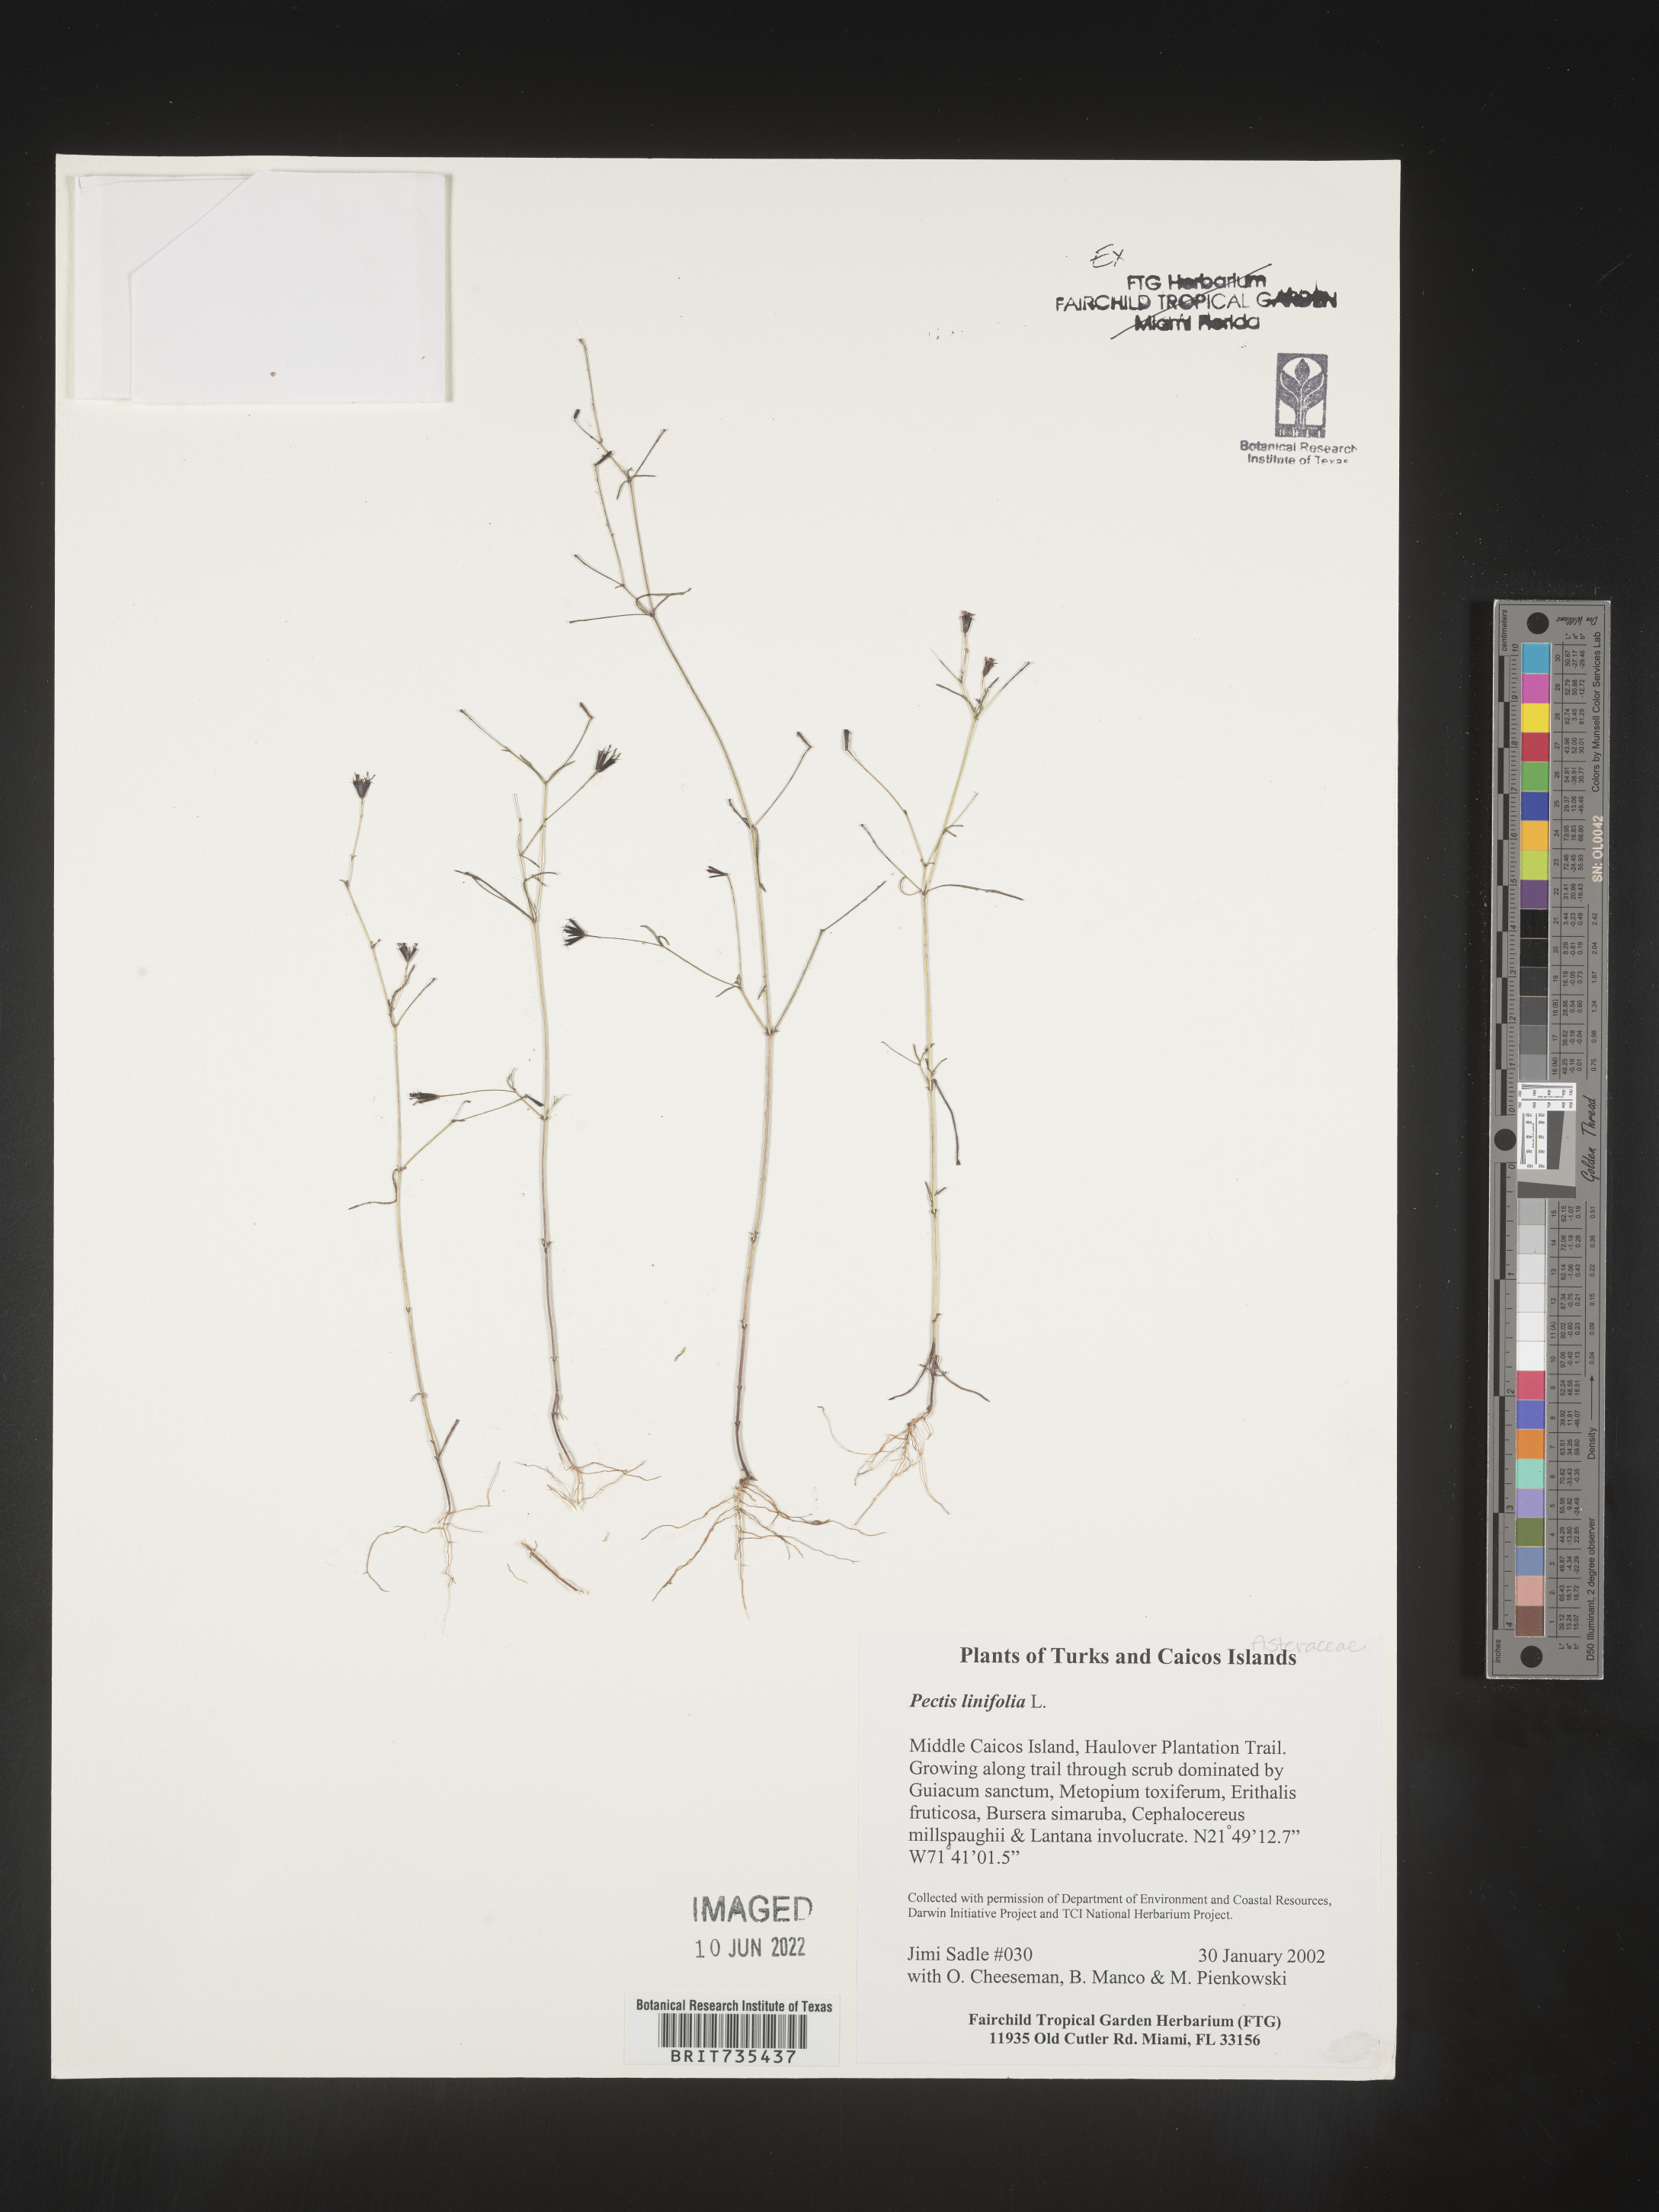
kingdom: Plantae
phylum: Tracheophyta
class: Magnoliopsida
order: Asterales
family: Asteraceae
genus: Pectis
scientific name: Pectis
